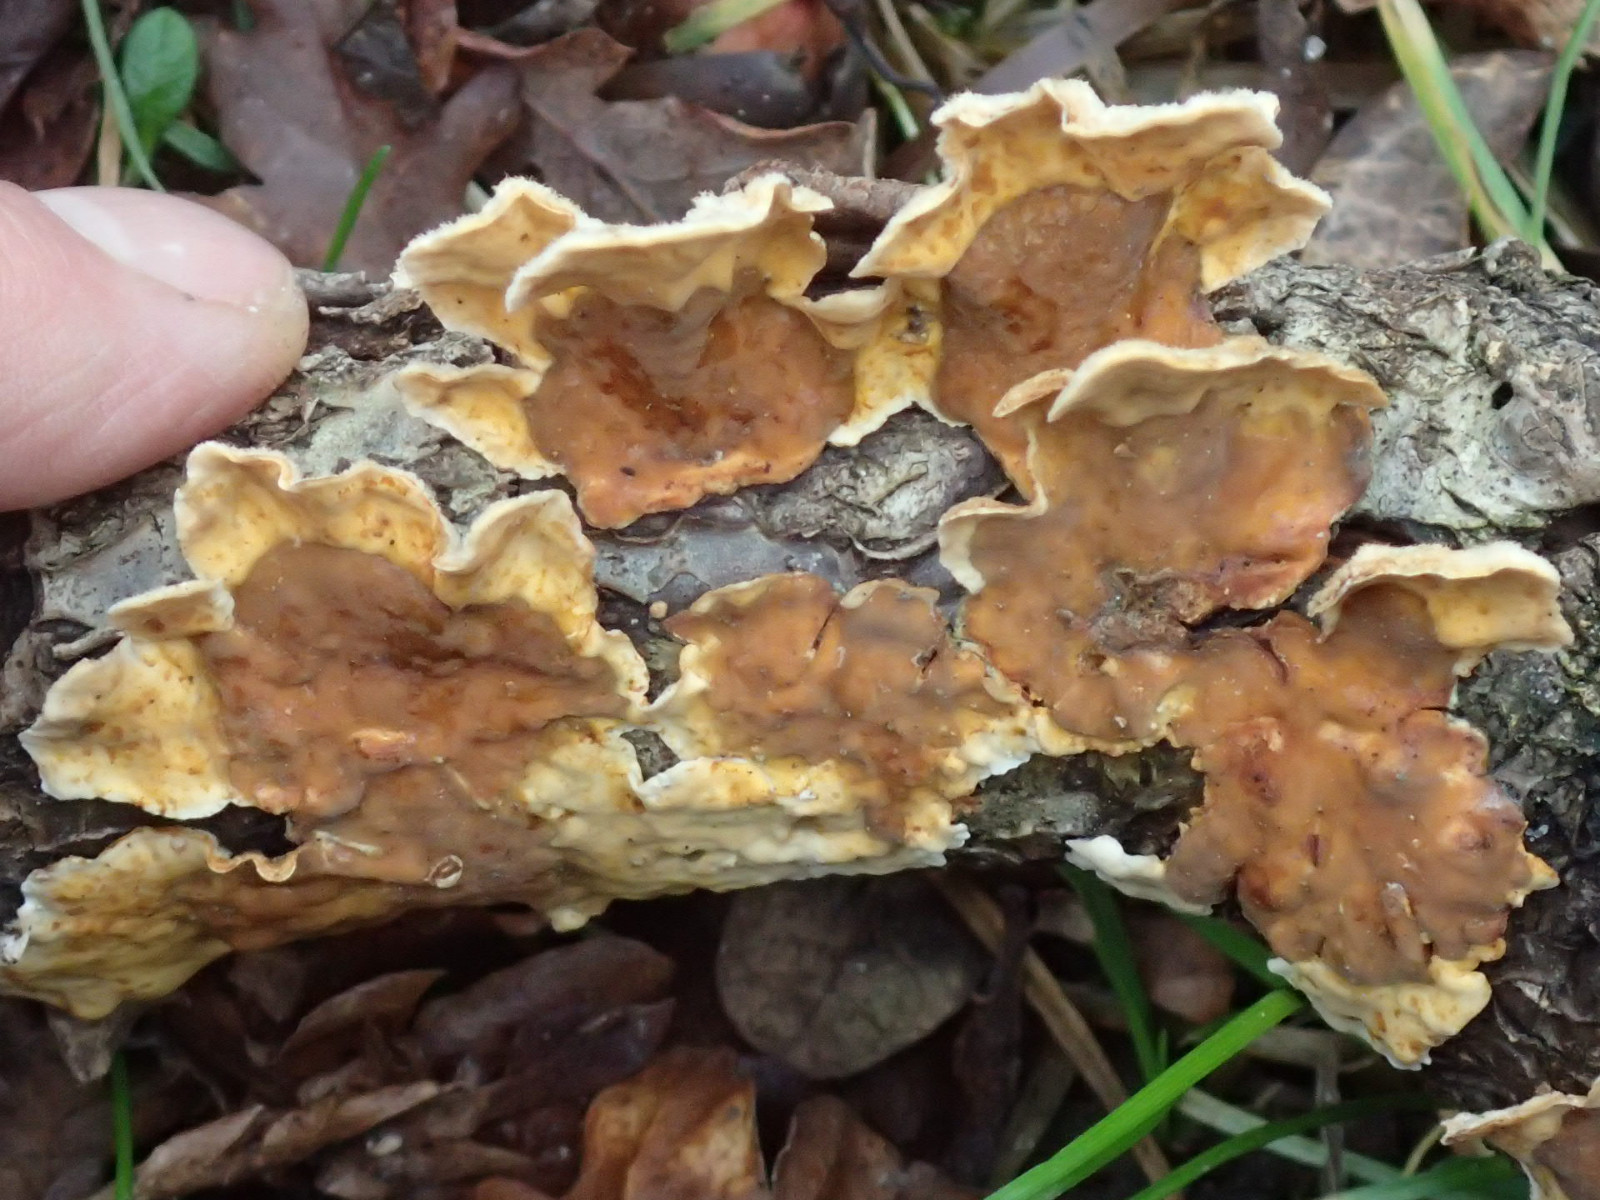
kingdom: Fungi
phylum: Basidiomycota
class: Agaricomycetes
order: Russulales
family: Stereaceae
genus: Stereum
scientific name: Stereum hirsutum
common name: håret lædersvamp
